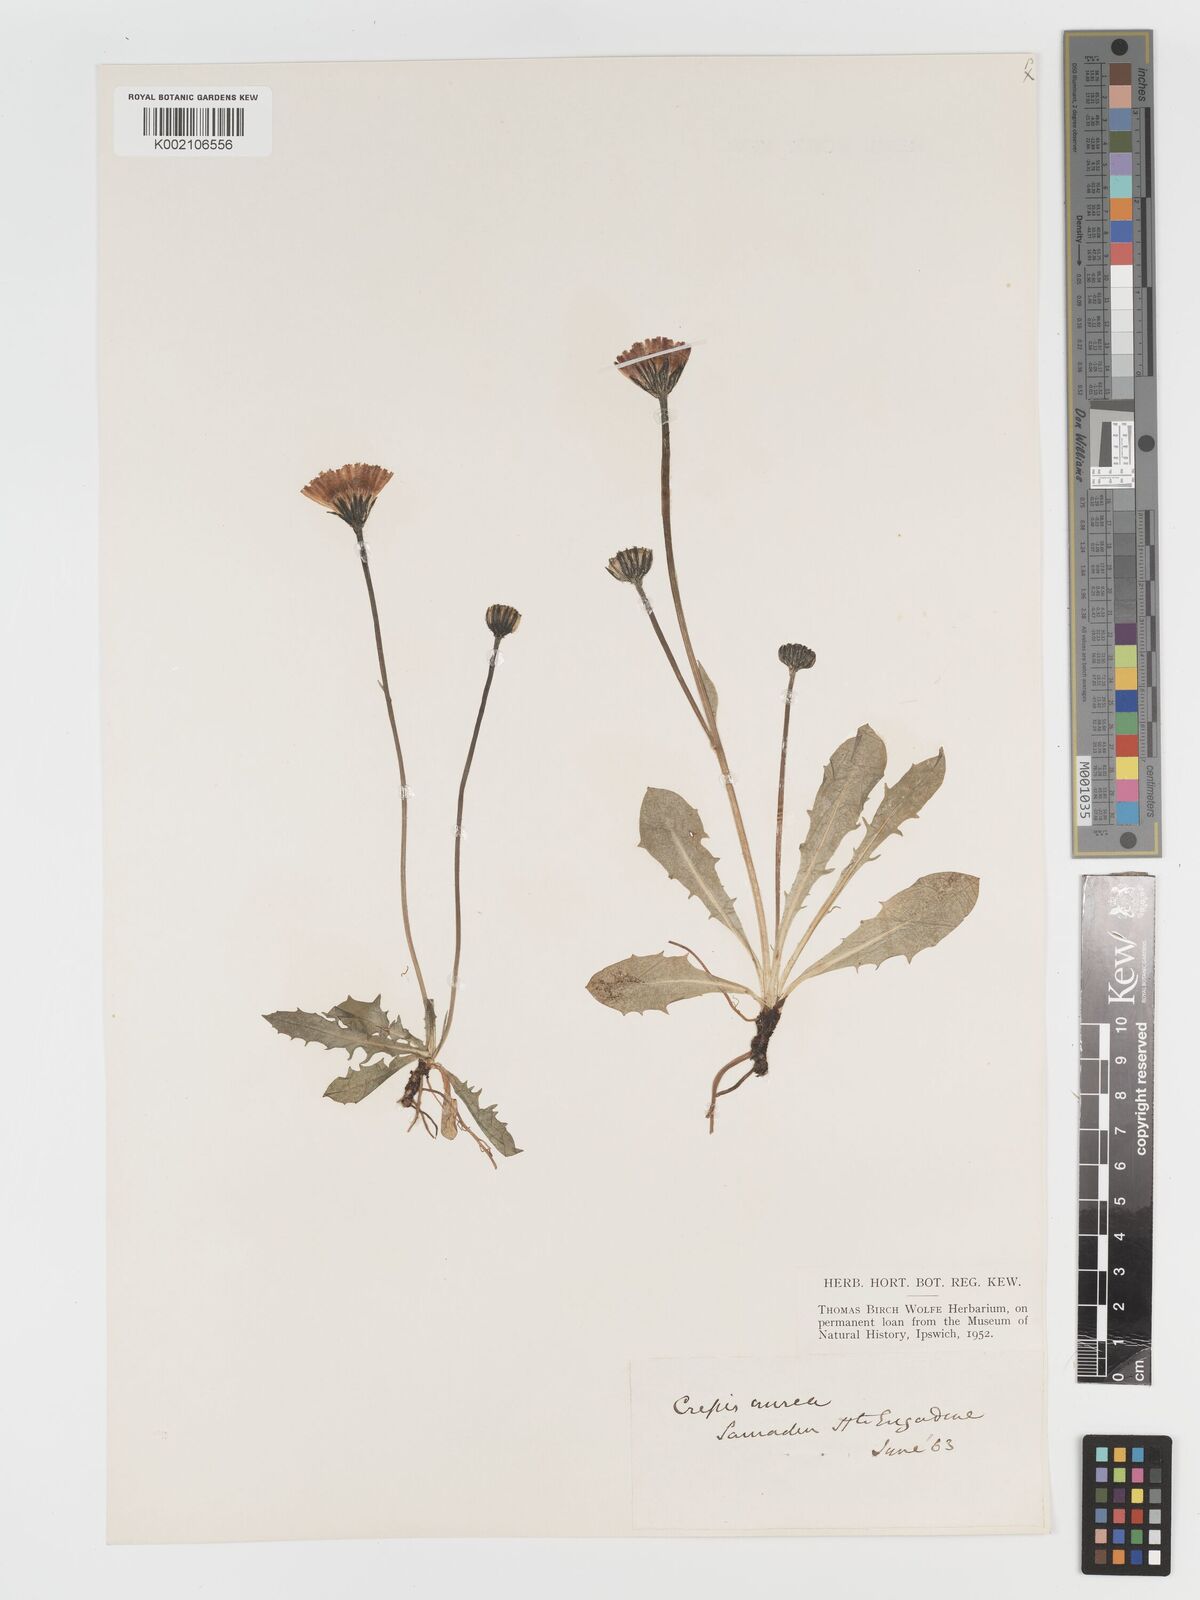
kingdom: Plantae
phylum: Tracheophyta
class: Magnoliopsida
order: Asterales
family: Asteraceae
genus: Crepis
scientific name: Crepis aurea
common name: Golden hawk's-beard
